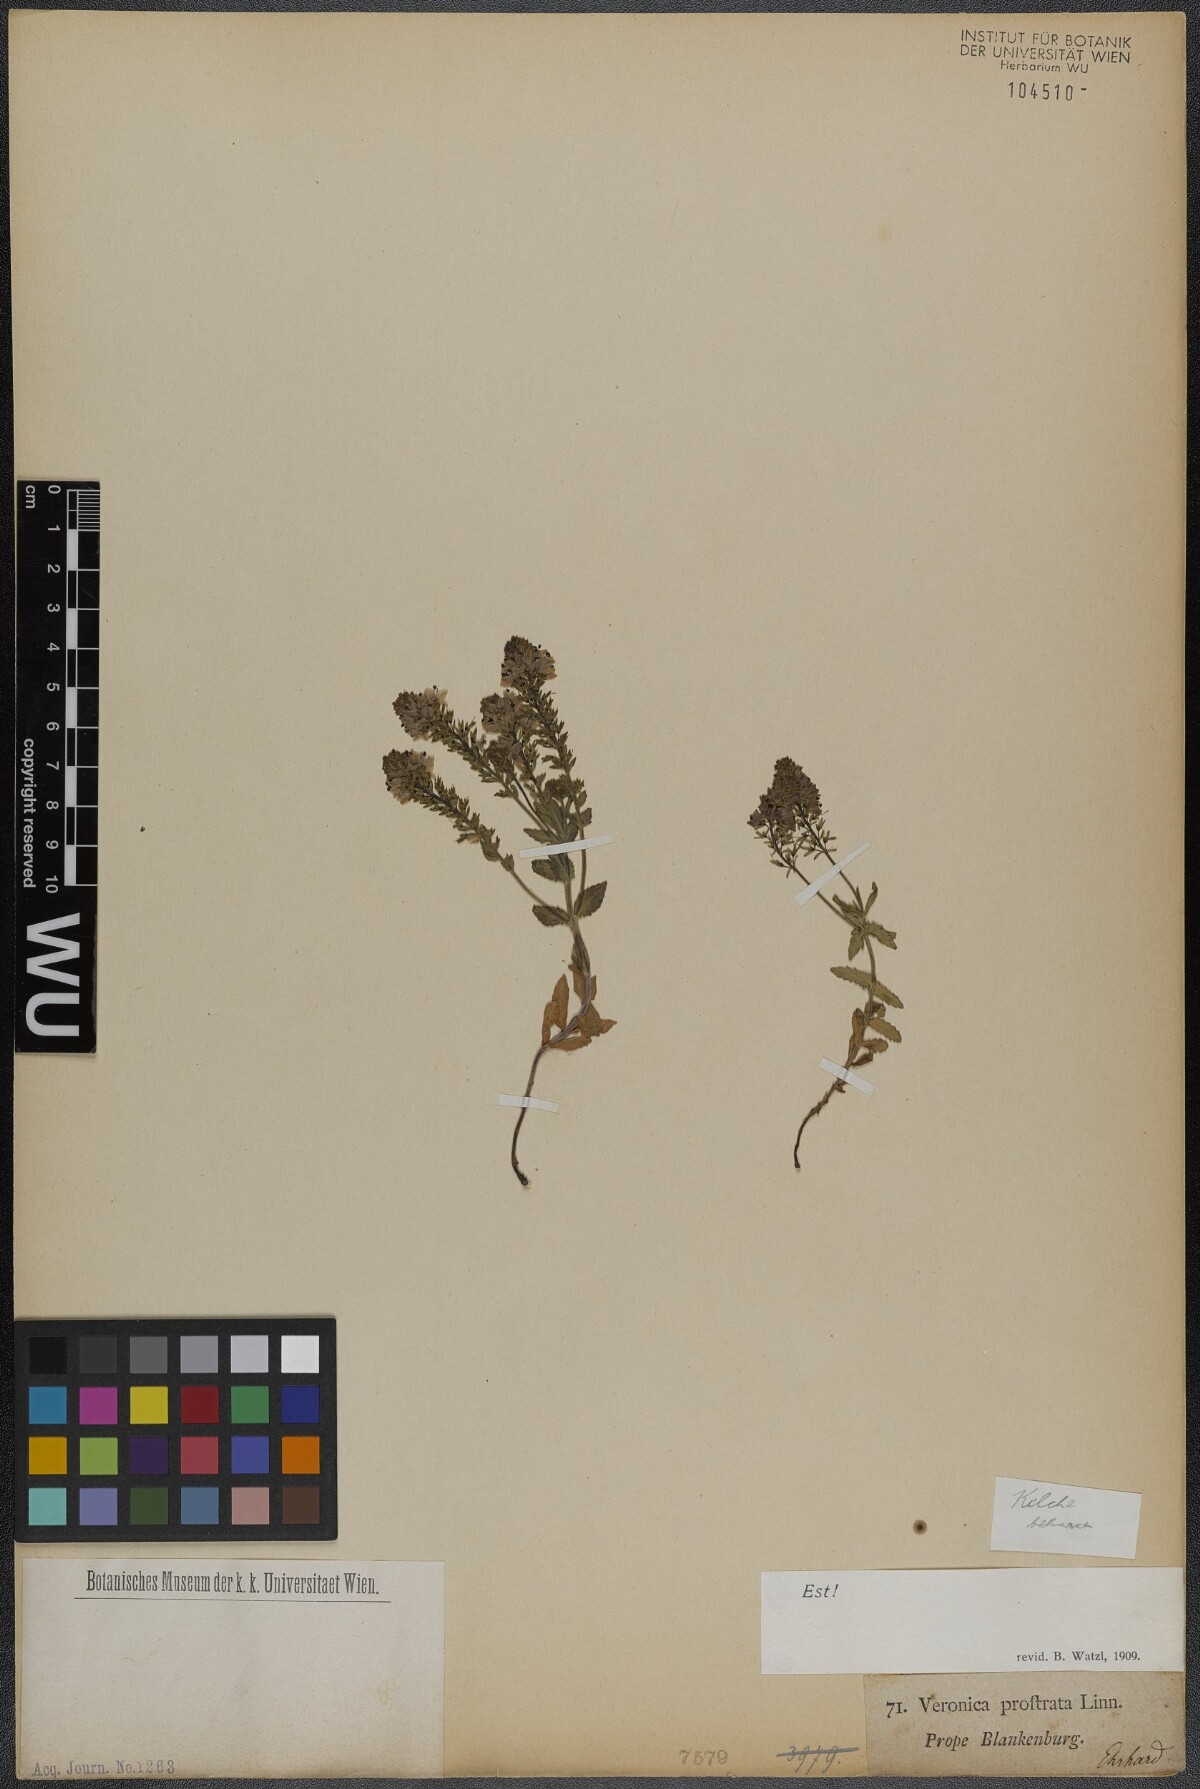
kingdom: Plantae
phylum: Tracheophyta
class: Magnoliopsida
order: Lamiales
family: Plantaginaceae
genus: Veronica
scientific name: Veronica prostrata
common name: Prostrate speedwell
